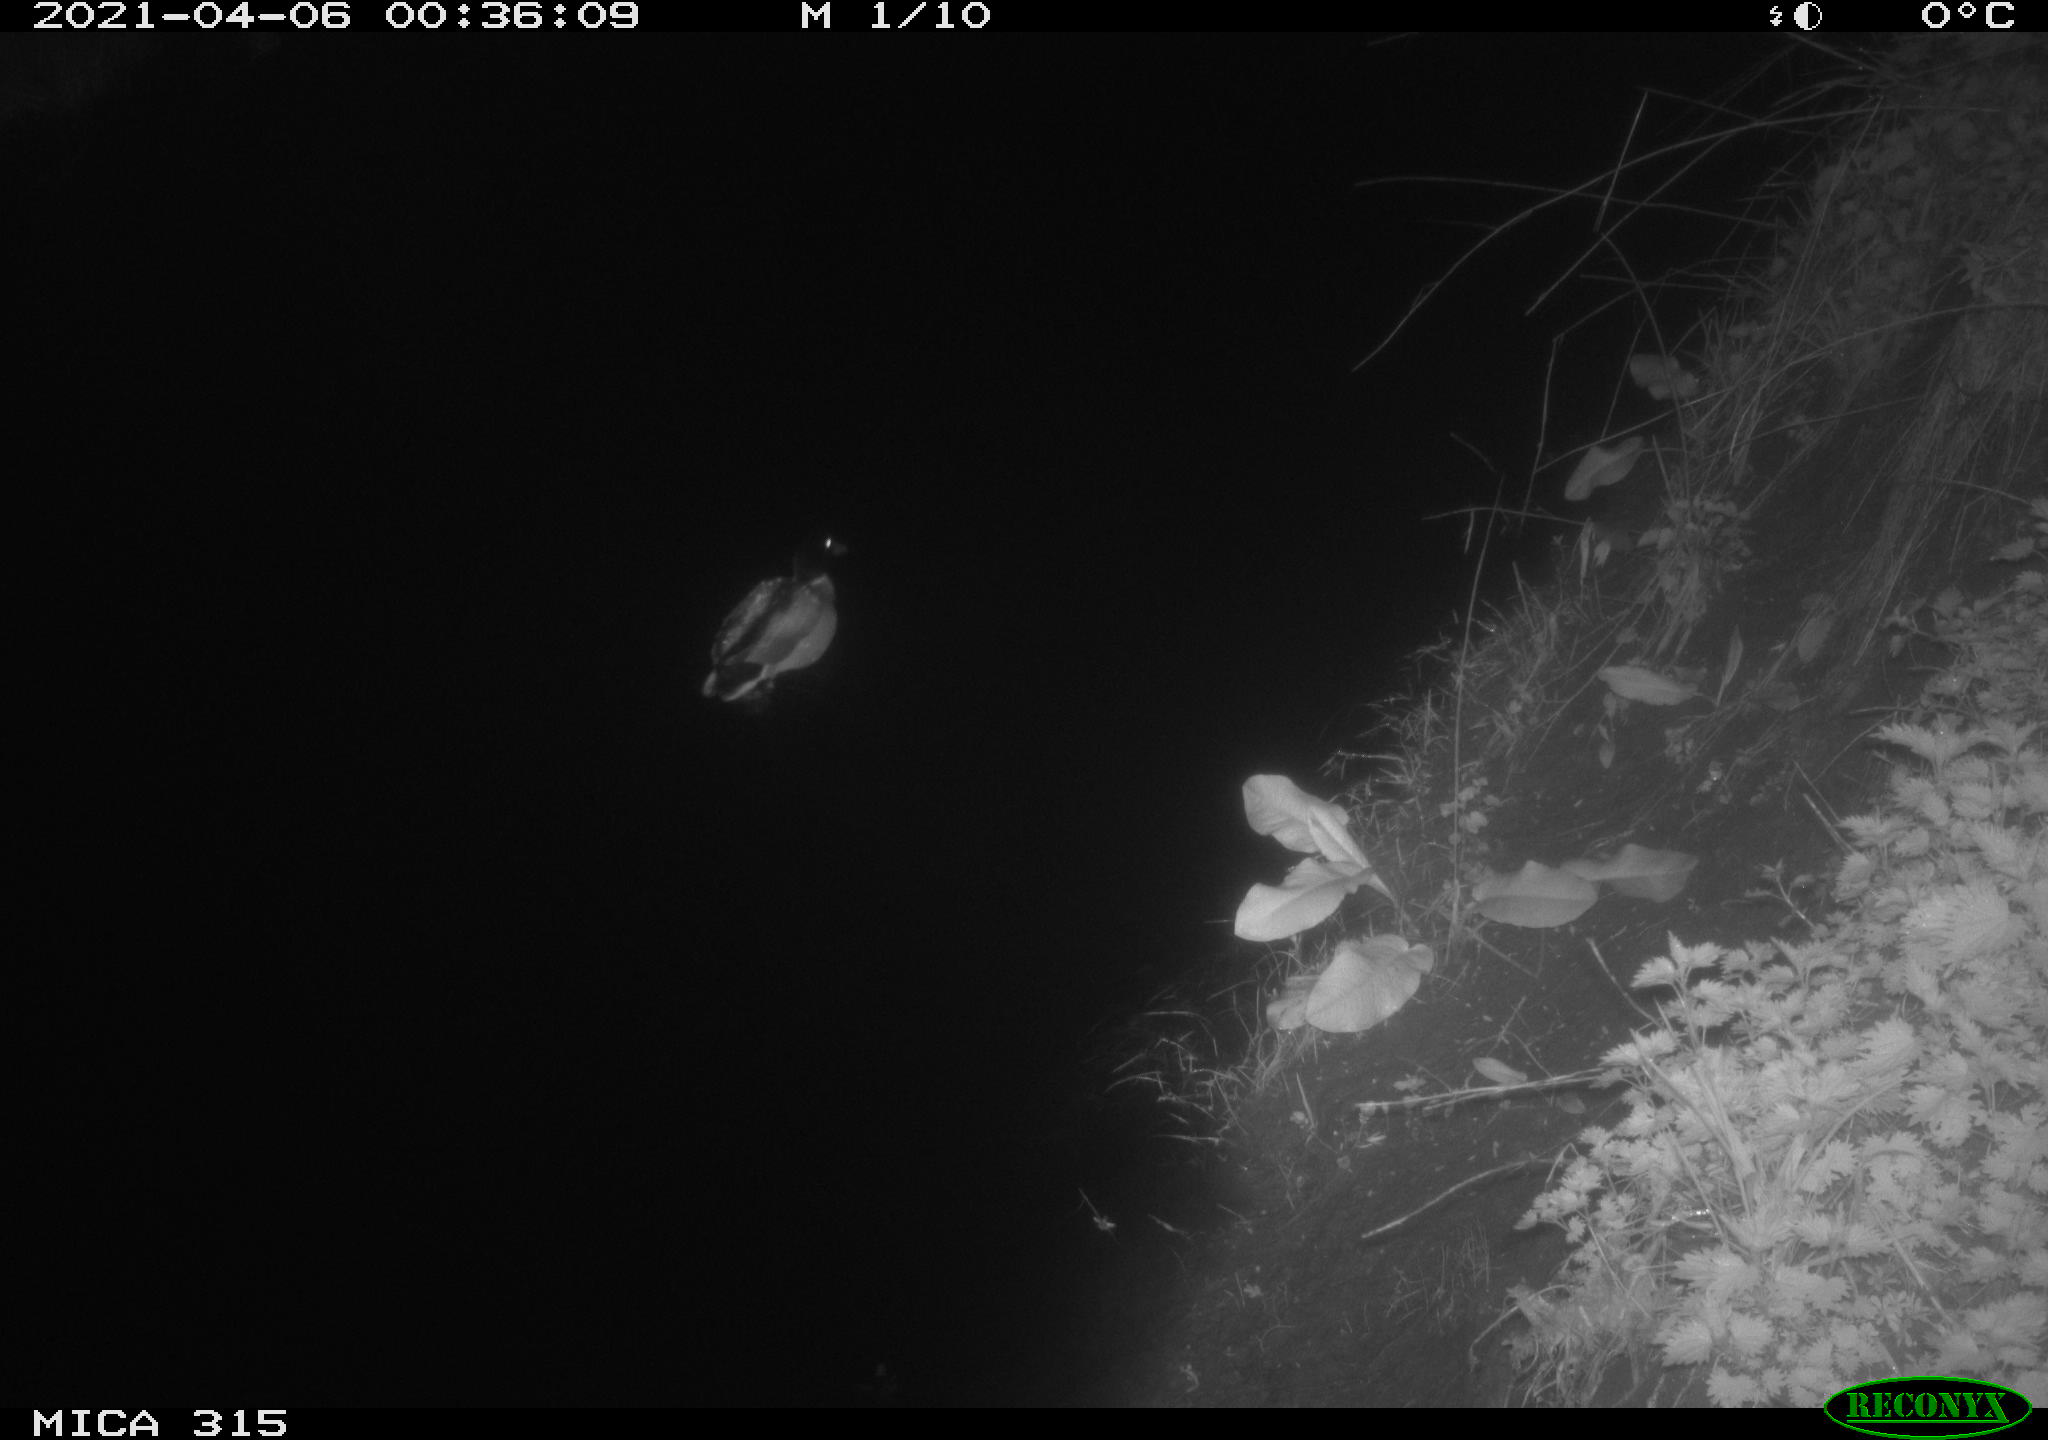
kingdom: Animalia
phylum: Chordata
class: Aves
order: Anseriformes
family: Anatidae
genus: Anas
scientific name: Anas platyrhynchos
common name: Mallard
